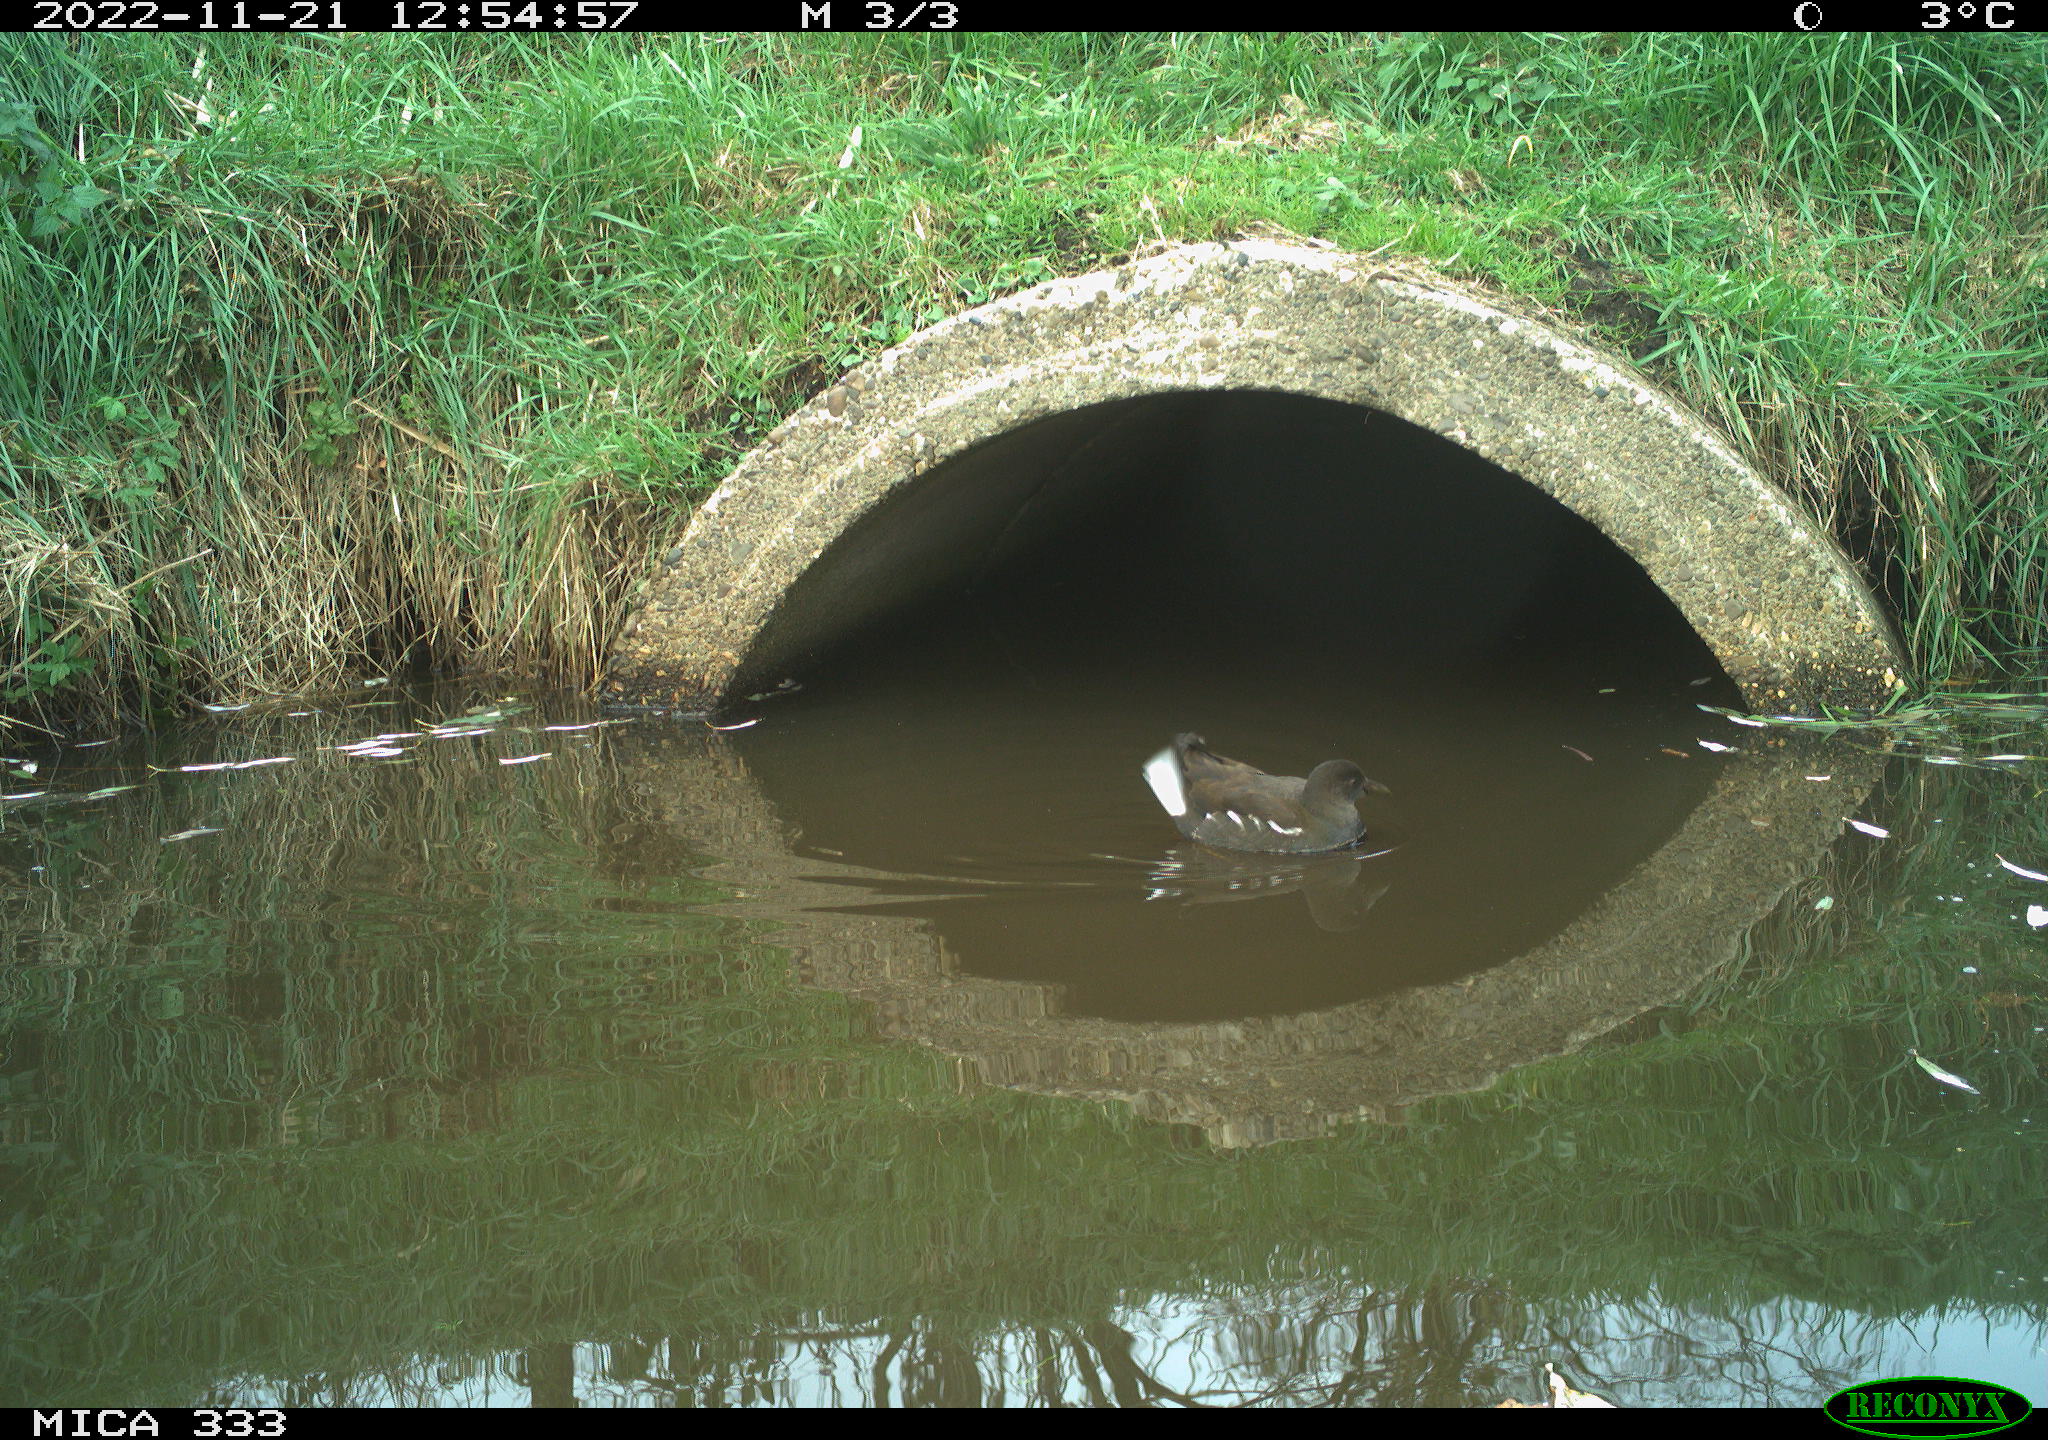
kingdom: Animalia
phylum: Chordata
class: Aves
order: Gruiformes
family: Rallidae
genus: Gallinula
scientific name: Gallinula chloropus
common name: Common moorhen
